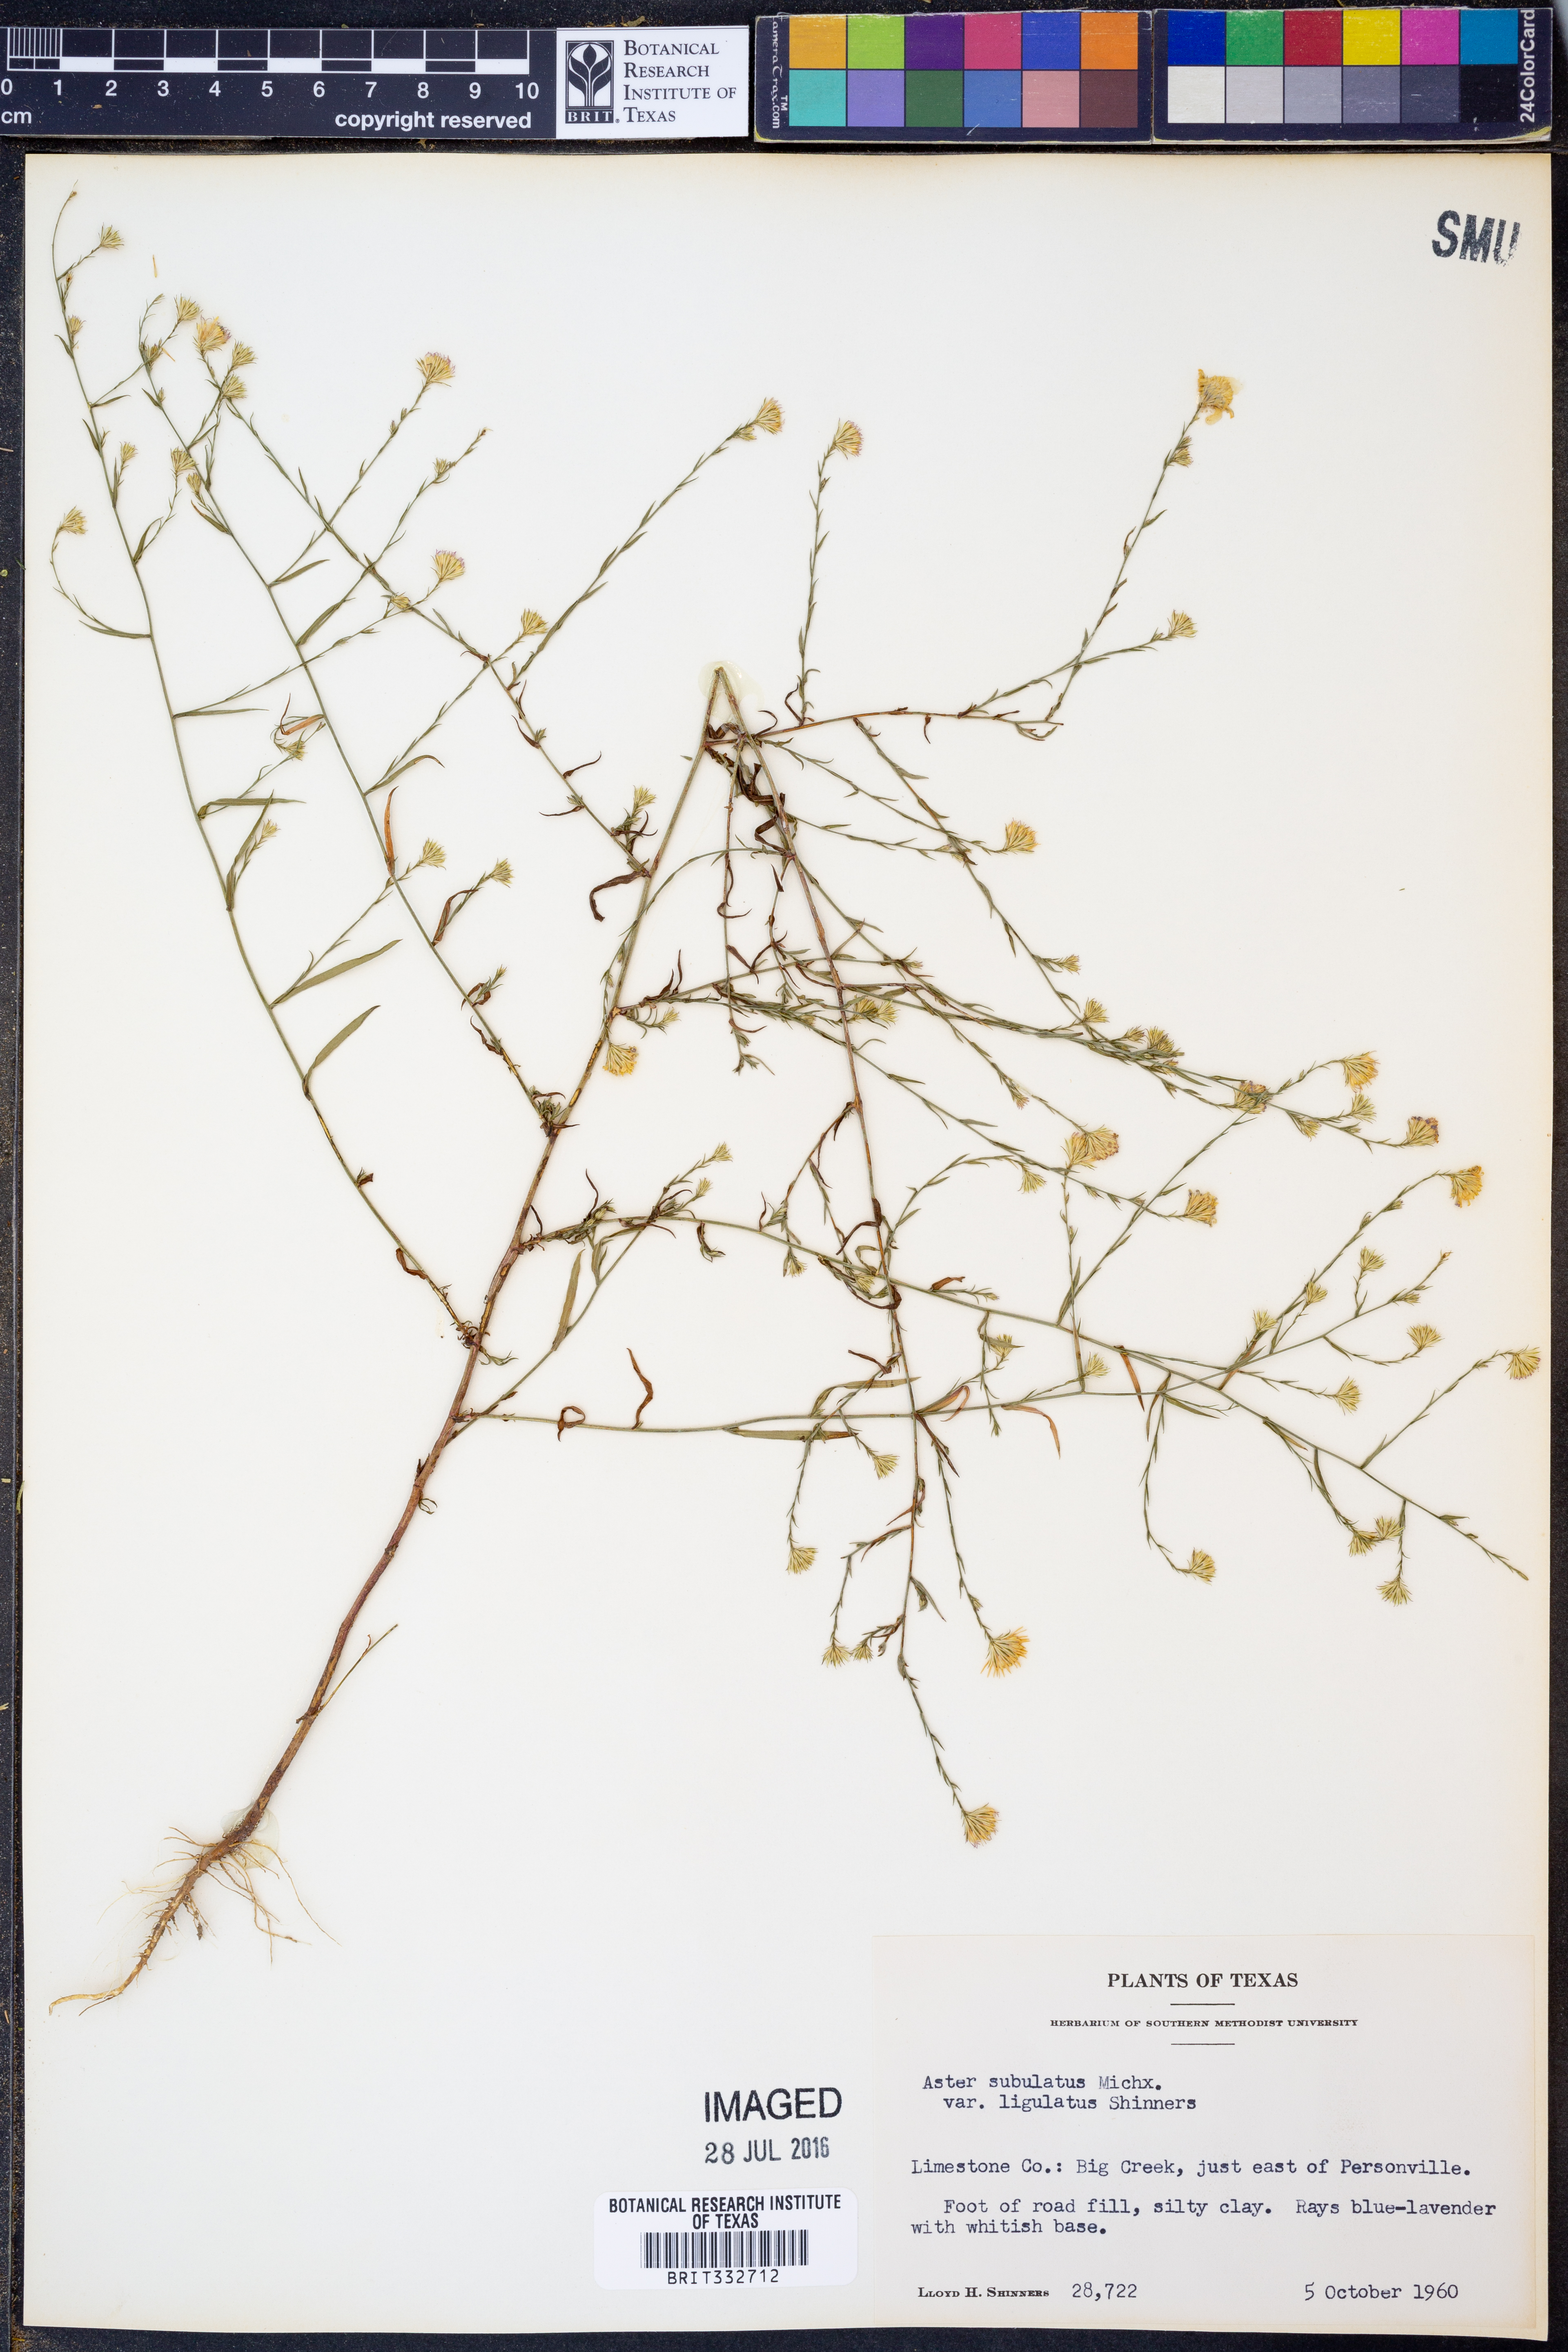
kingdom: Plantae
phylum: Tracheophyta
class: Magnoliopsida
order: Asterales
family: Asteraceae
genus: Symphyotrichum
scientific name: Symphyotrichum subulatum
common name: Annual saltmarsh aster
